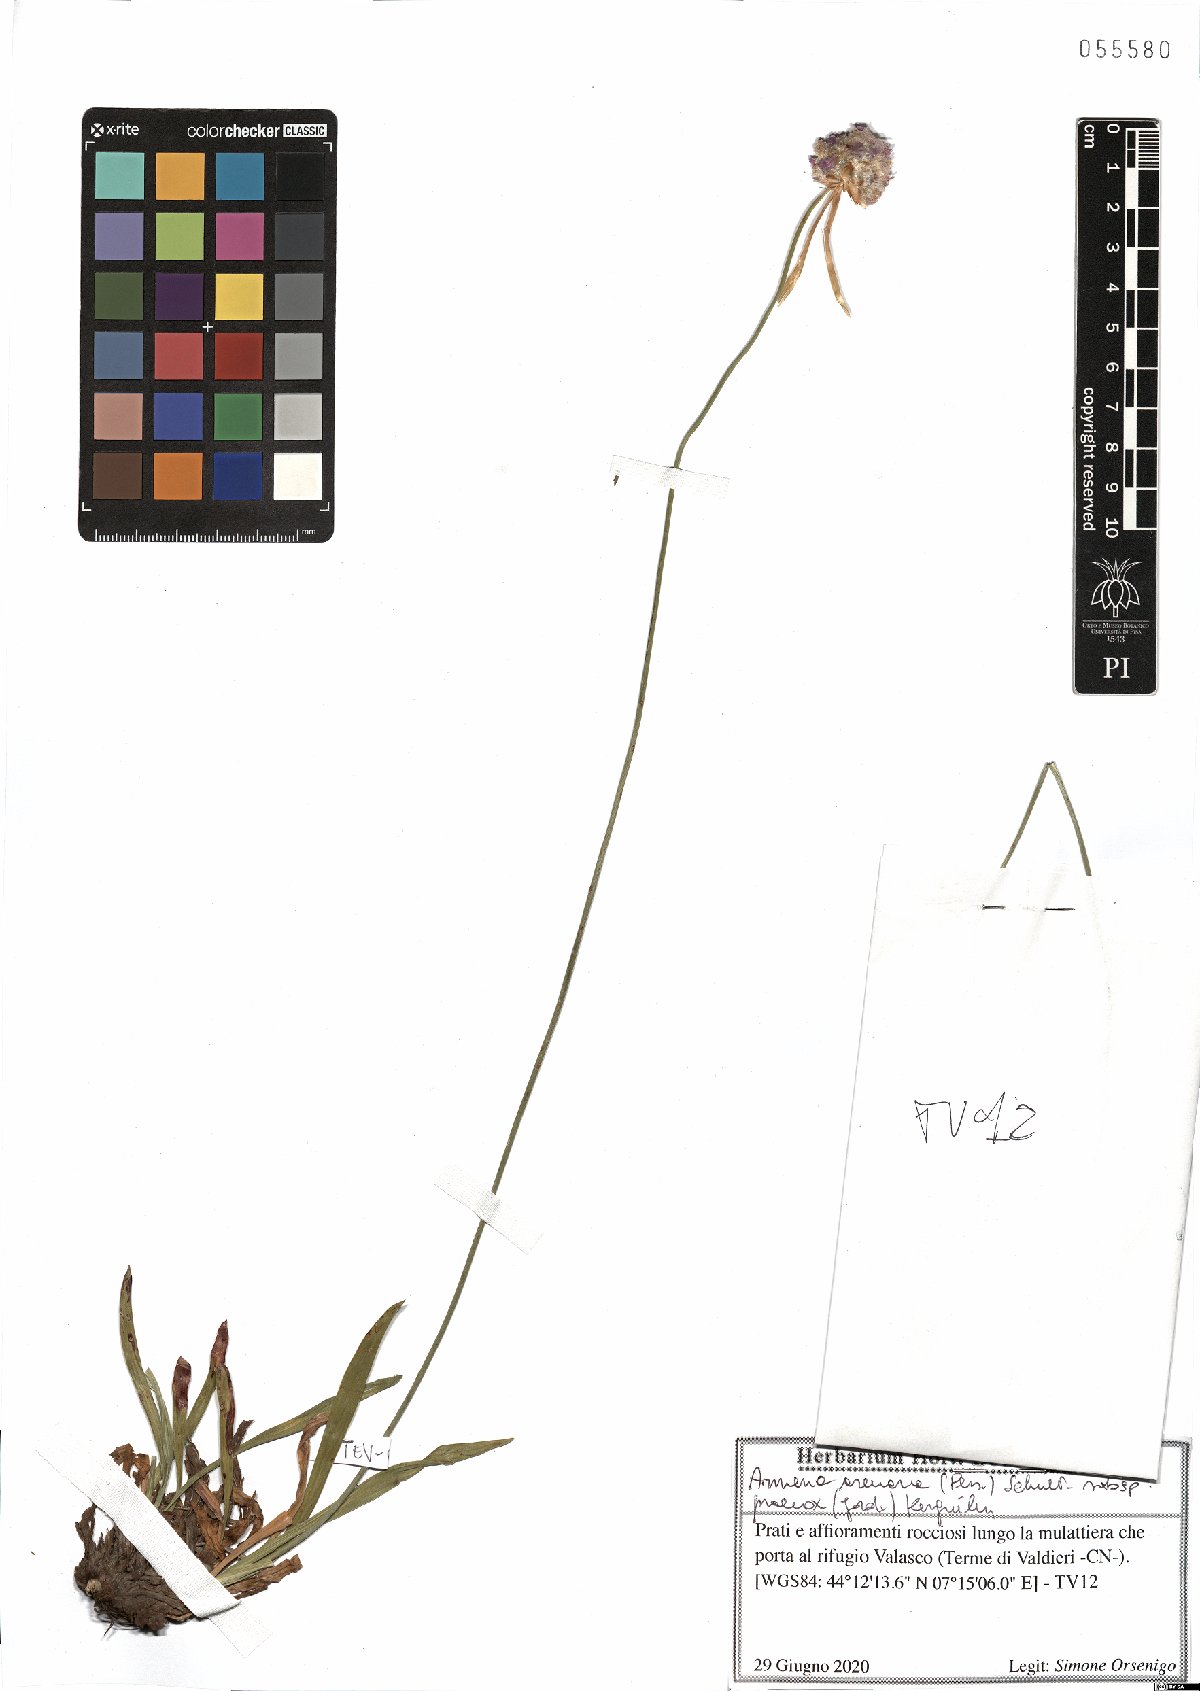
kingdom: Plantae
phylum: Tracheophyta
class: Magnoliopsida
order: Caryophyllales
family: Plumbaginaceae
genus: Armeria
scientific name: Armeria arenaria
